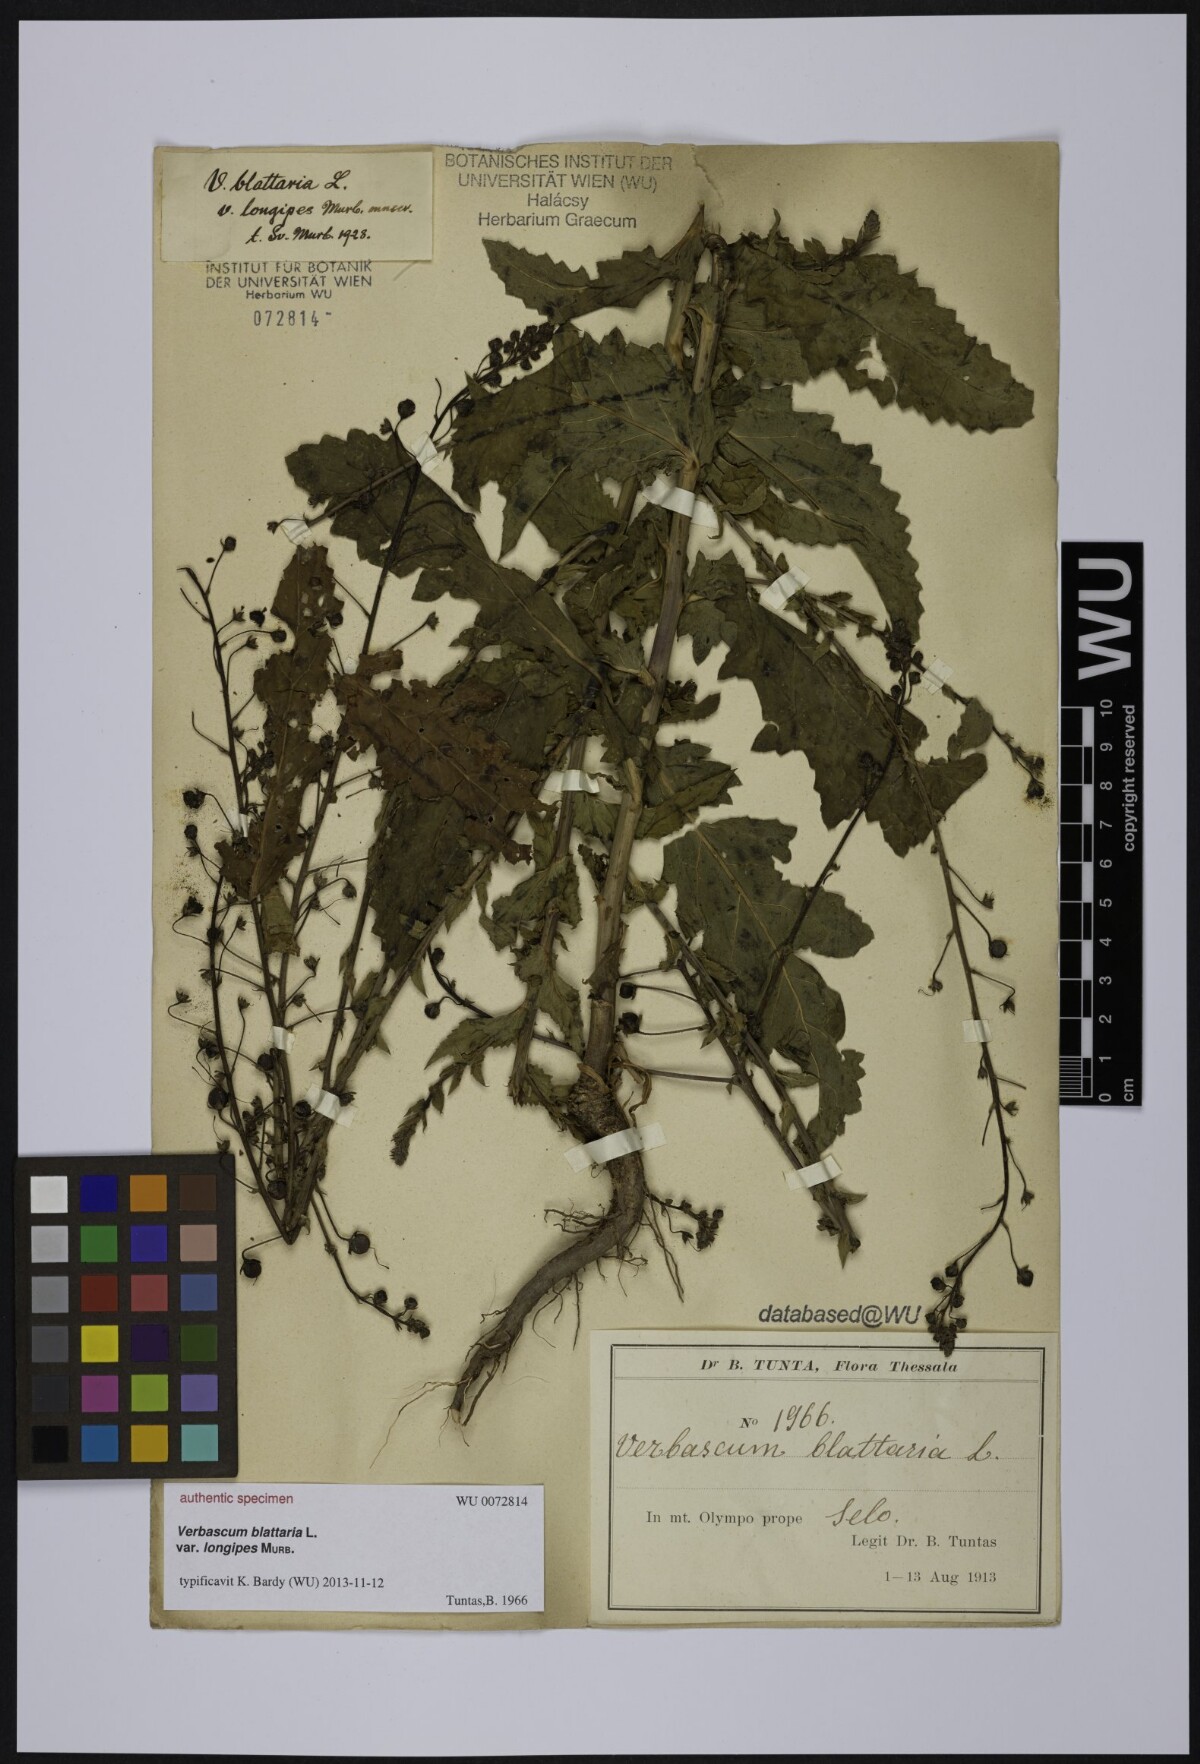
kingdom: Plantae
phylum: Tracheophyta
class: Magnoliopsida
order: Lamiales
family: Scrophulariaceae
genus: Verbascum
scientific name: Verbascum blattaria
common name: Moth mullein
